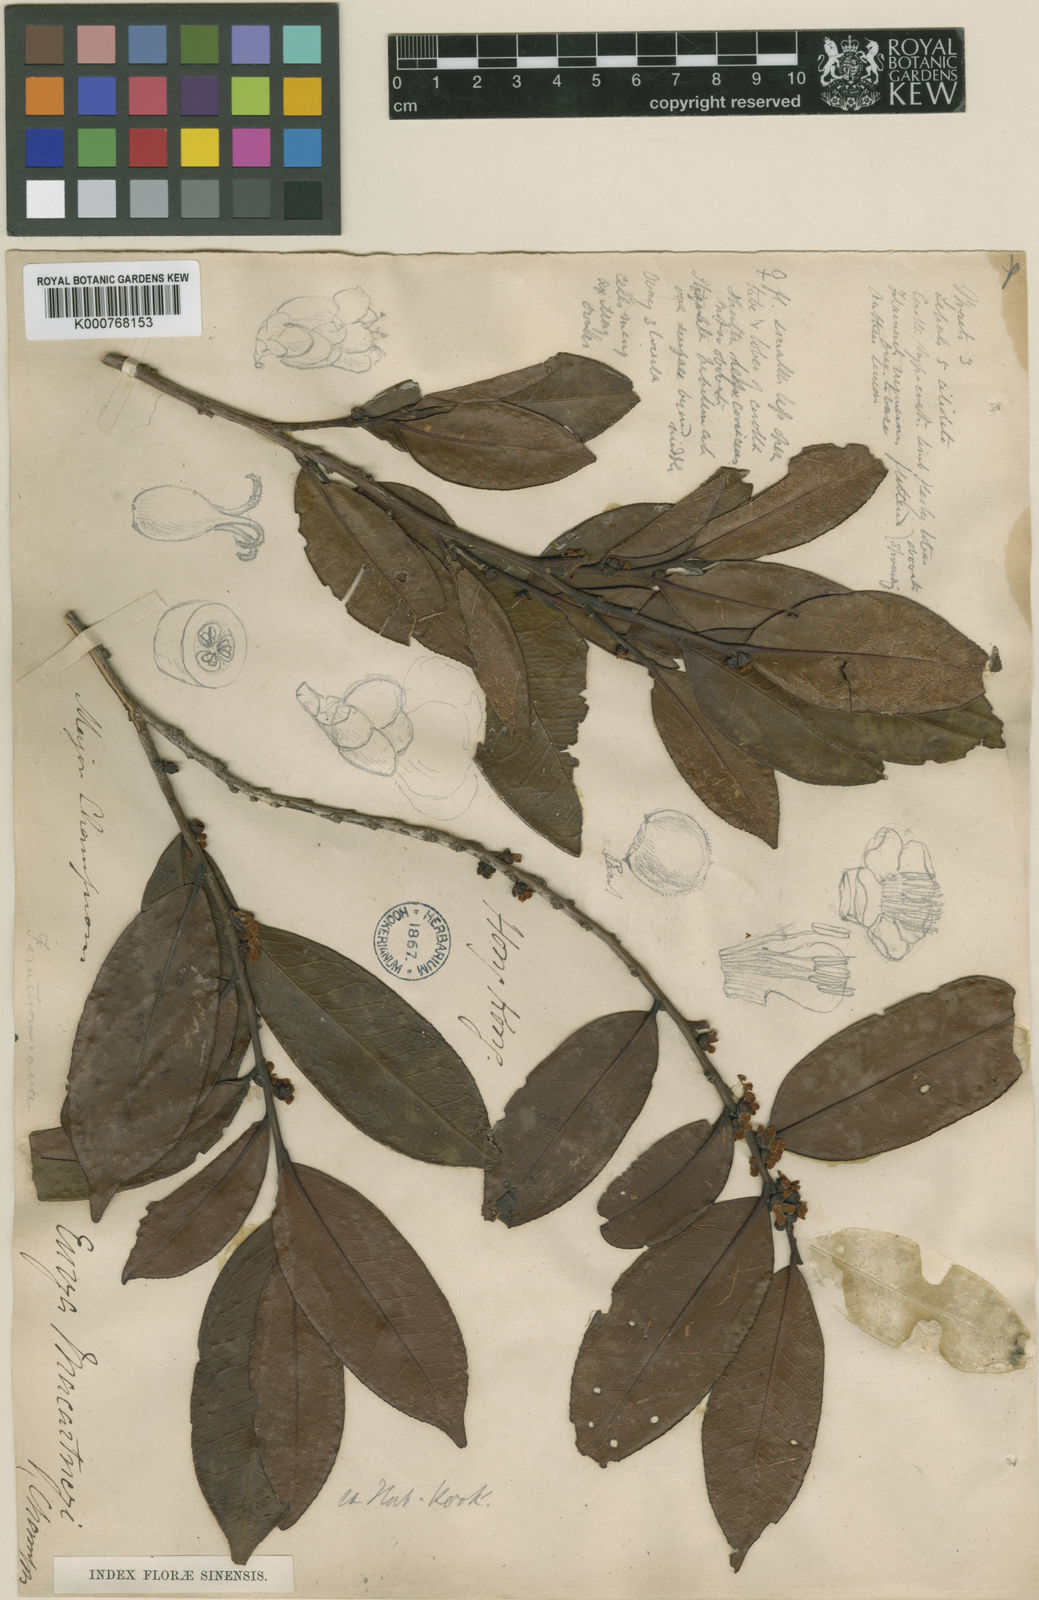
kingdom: Plantae
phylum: Tracheophyta
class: Magnoliopsida
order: Ericales
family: Pentaphylacaceae
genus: Eurya
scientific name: Eurya macartneyi
